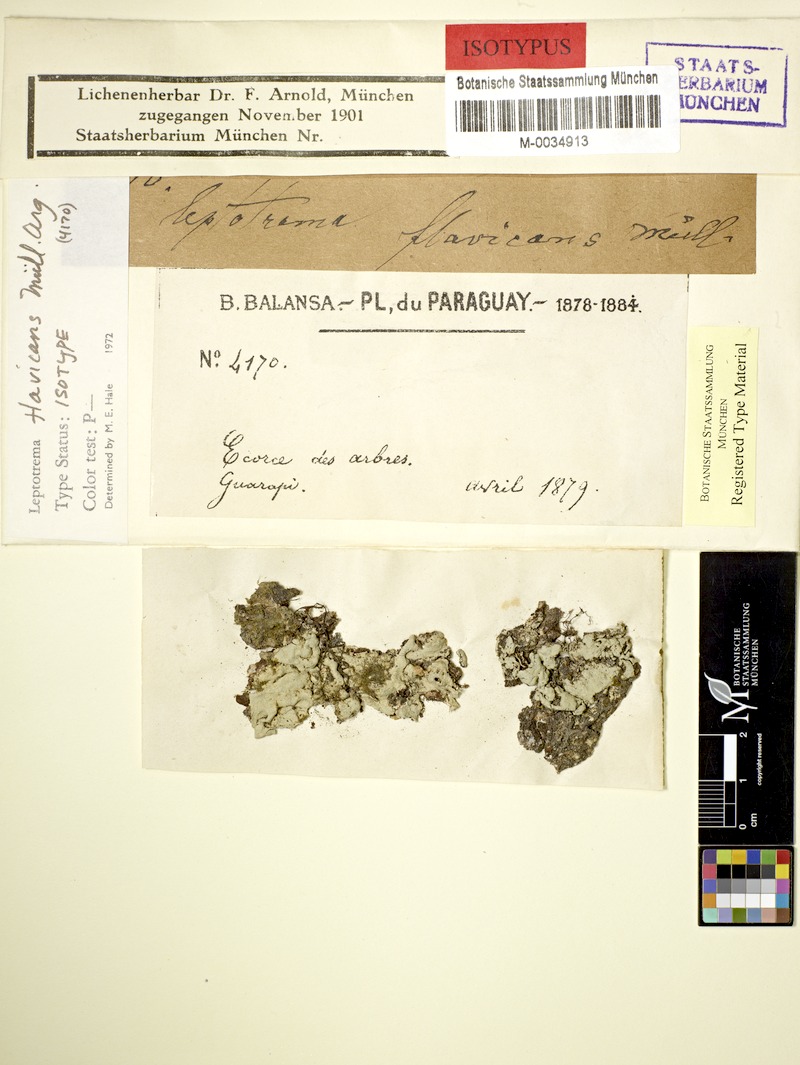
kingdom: Fungi
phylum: Ascomycota
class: Lecanoromycetes
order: Ostropales
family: Graphidaceae
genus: Sanguinotrema
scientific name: Sanguinotrema wightii
